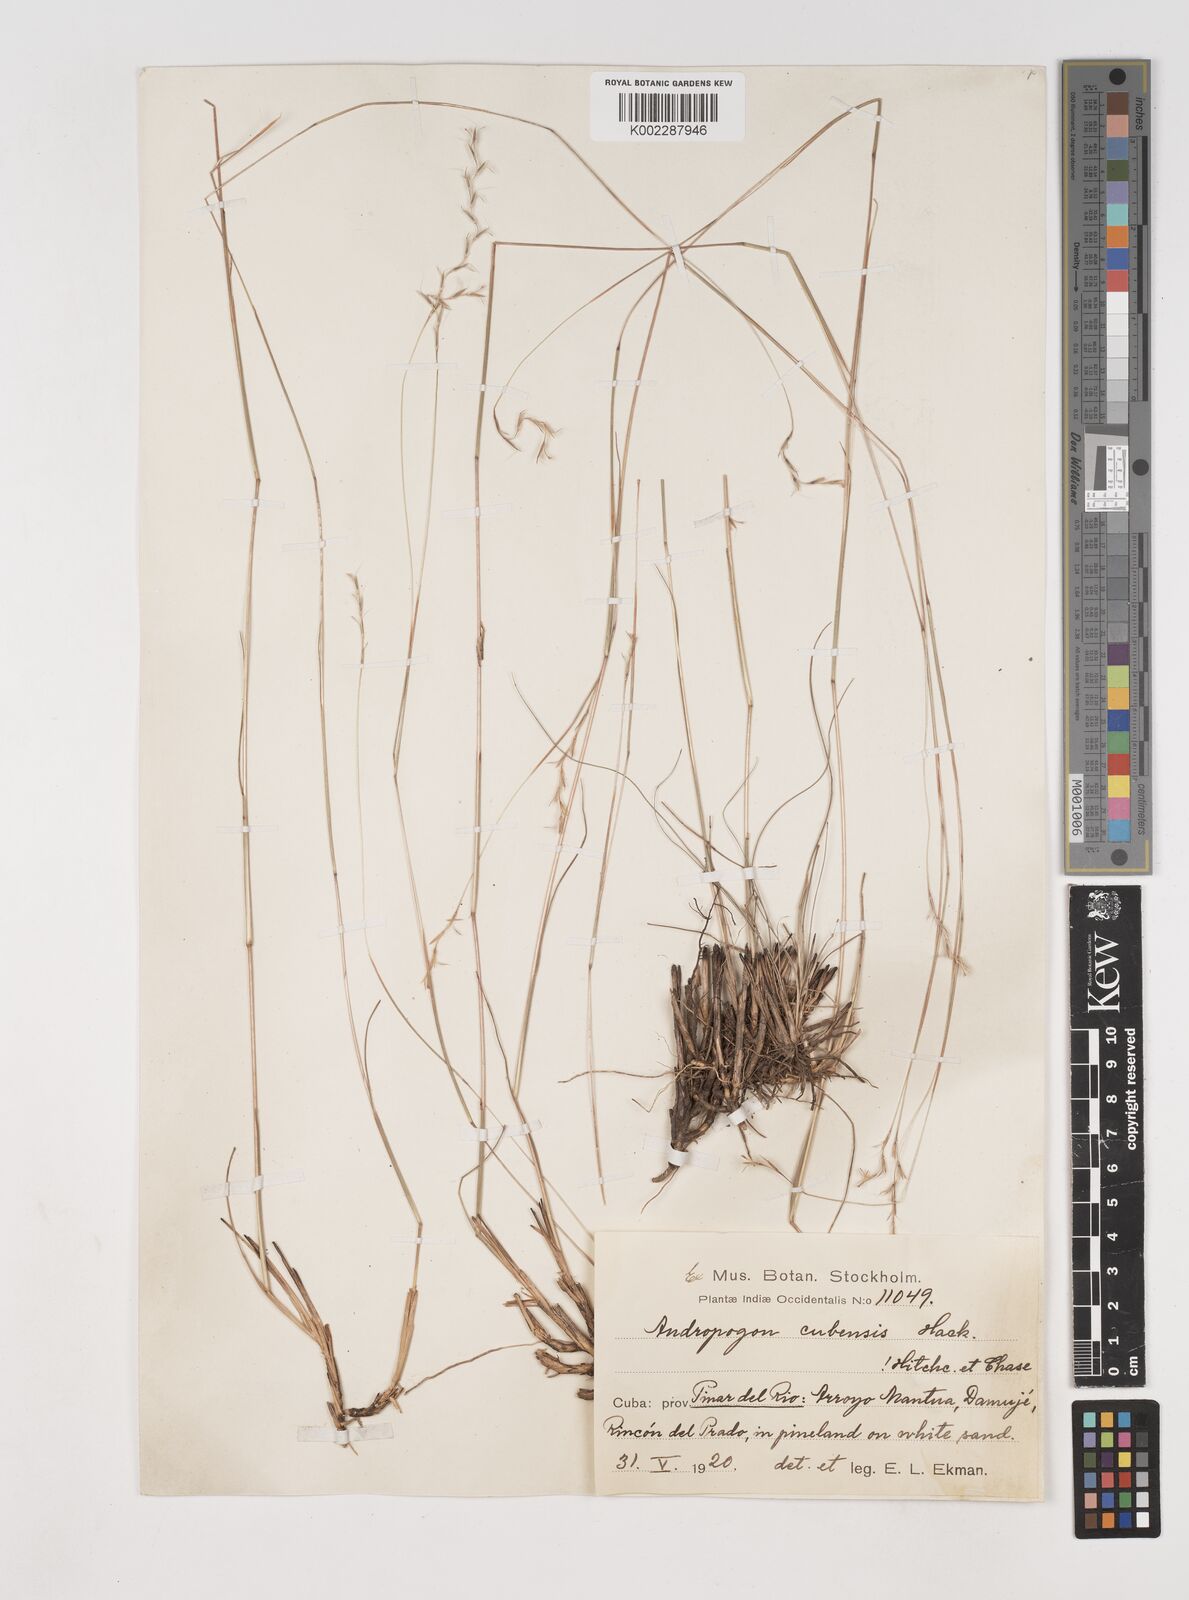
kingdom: Plantae
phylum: Tracheophyta
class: Liliopsida
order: Poales
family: Poaceae
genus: Schizachyrium
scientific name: Schizachyrium cubense
